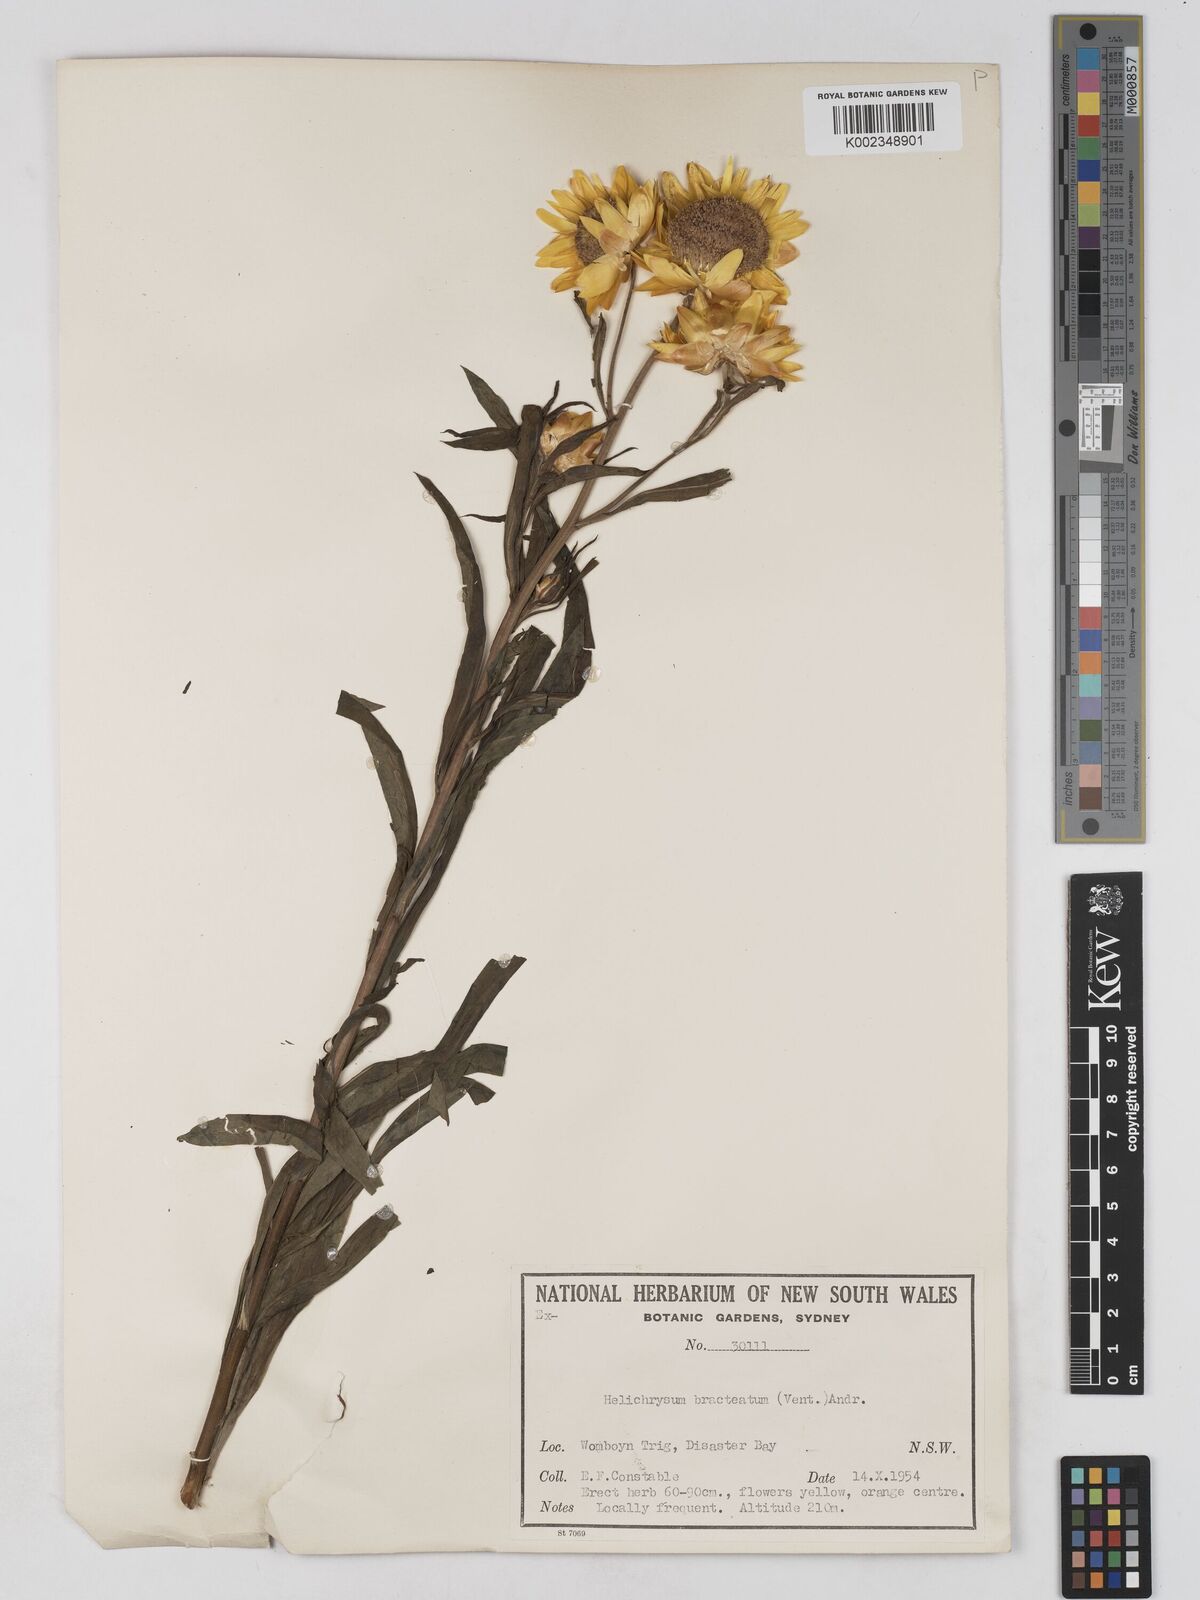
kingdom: Plantae
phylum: Tracheophyta
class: Magnoliopsida
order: Asterales
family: Asteraceae
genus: Xerochrysum
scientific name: Xerochrysum bracteatum
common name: Bracted strawflower
